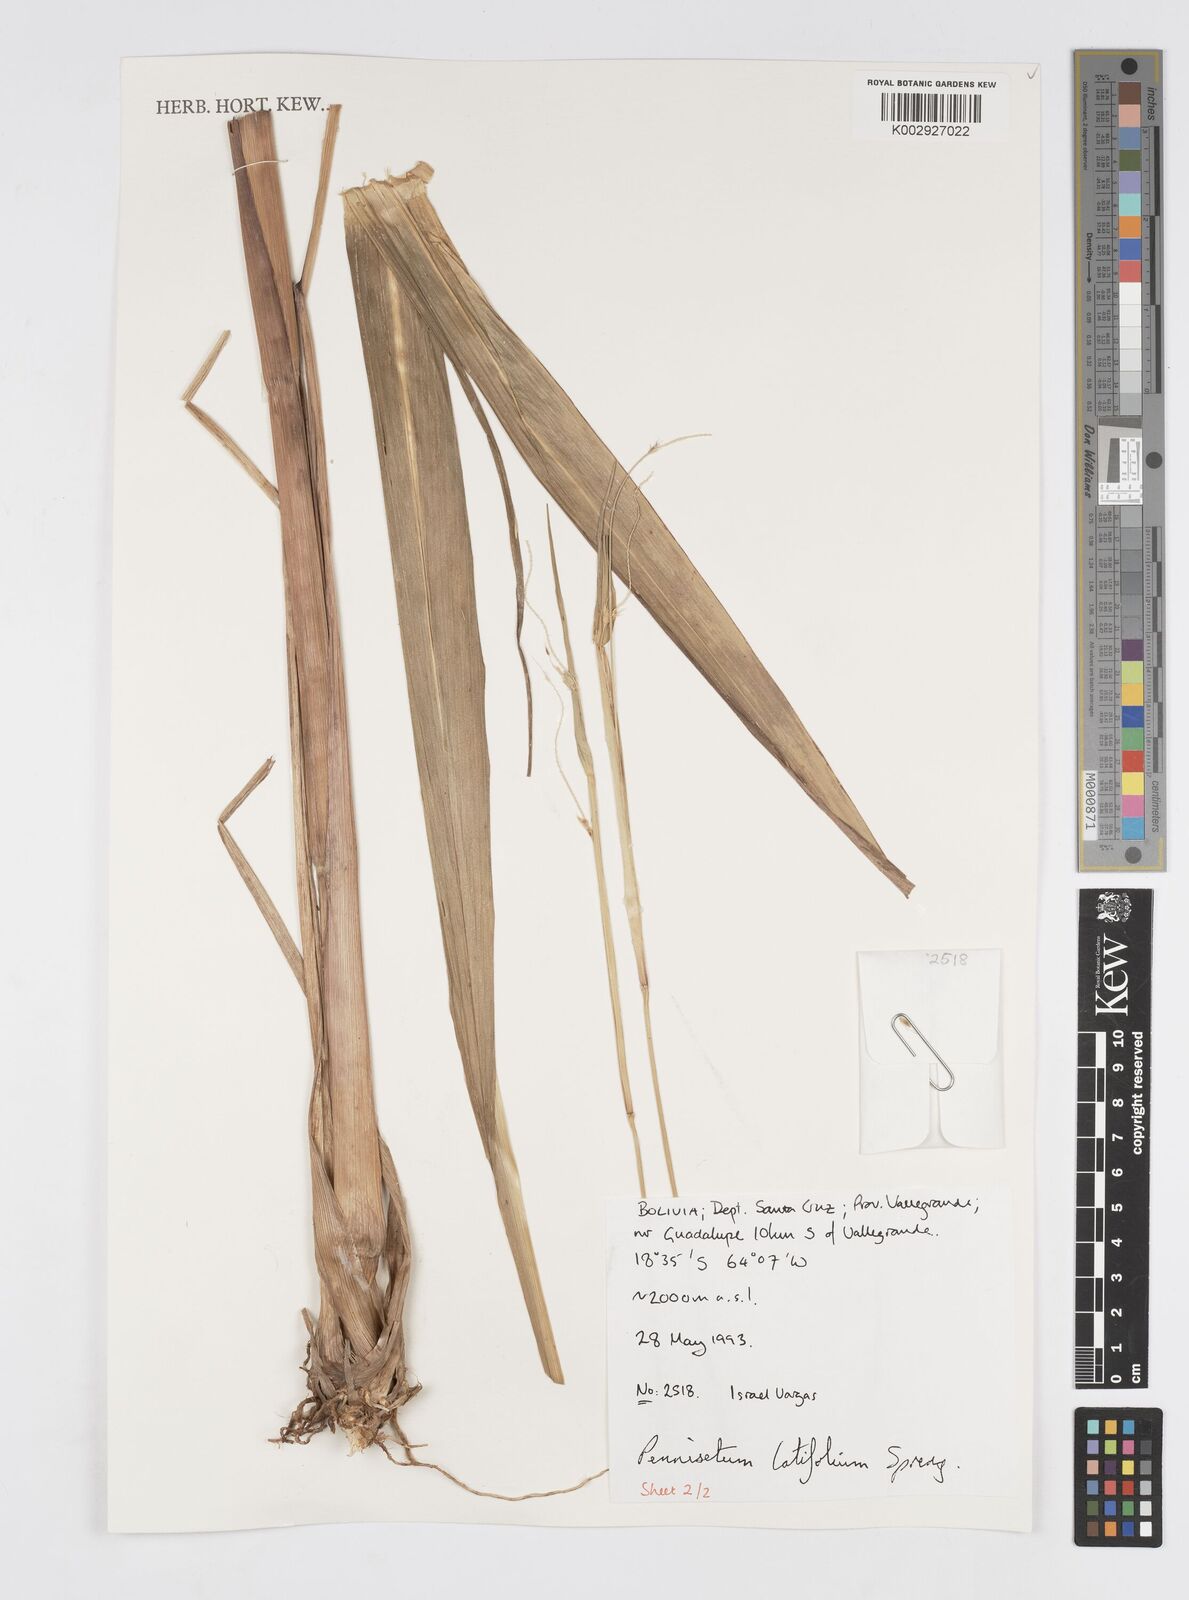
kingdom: Plantae
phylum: Tracheophyta
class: Liliopsida
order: Poales
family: Poaceae
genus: Cenchrus
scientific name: Cenchrus latifolius
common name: Sandbur
